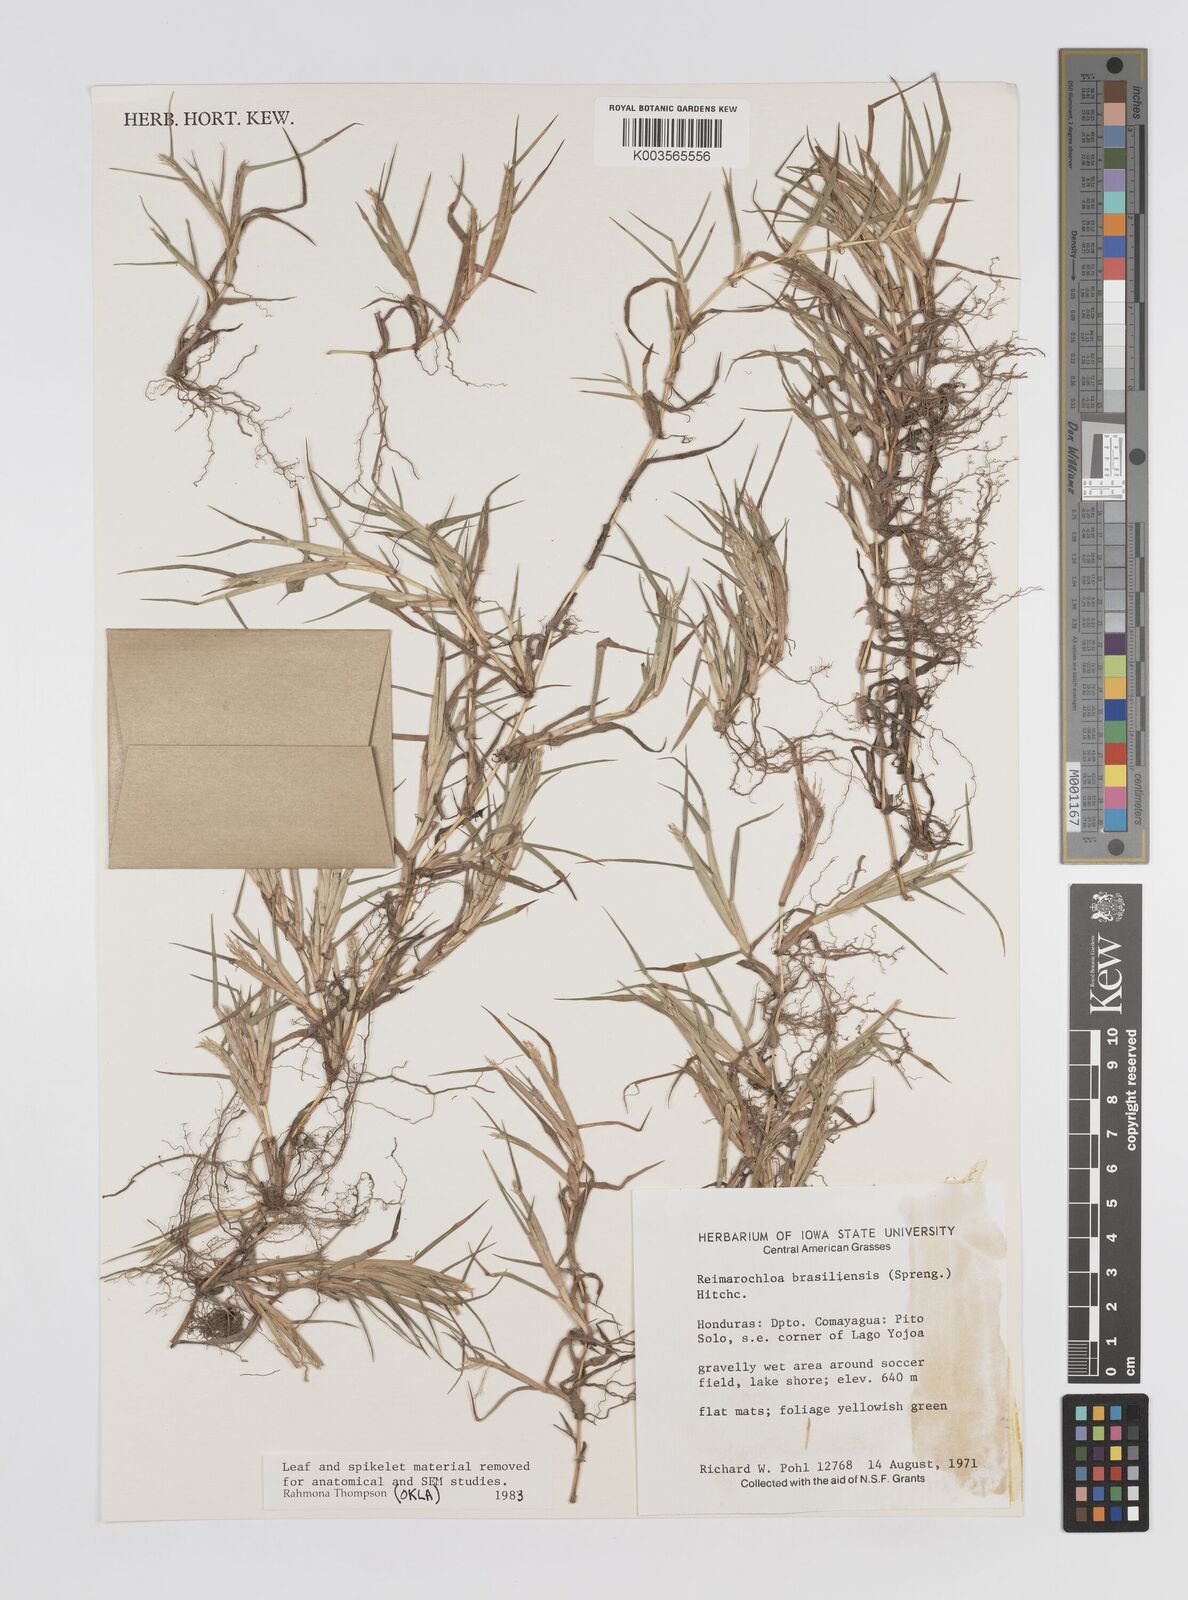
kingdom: Plantae
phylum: Tracheophyta
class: Liliopsida
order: Poales
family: Poaceae
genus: Paspalum
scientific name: Paspalum stagnophilum
